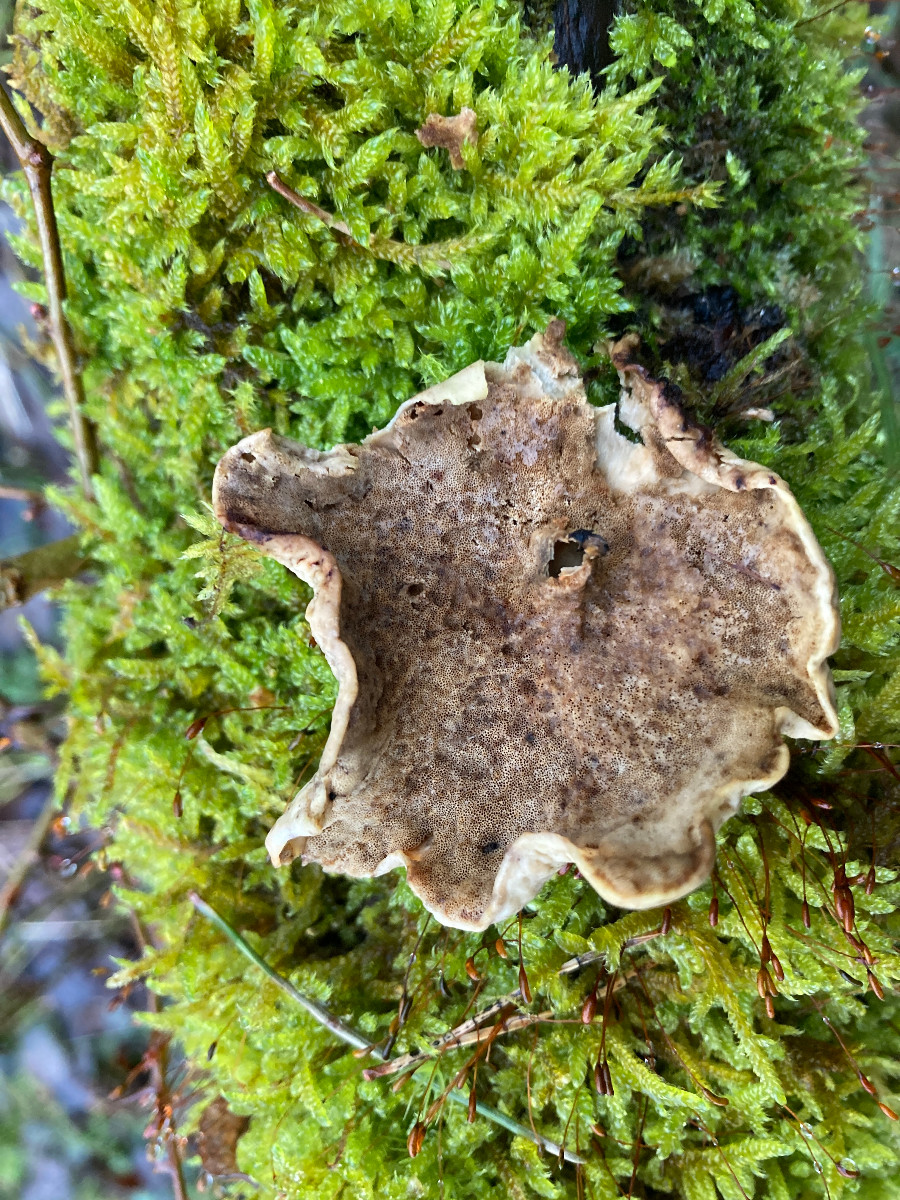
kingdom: Fungi
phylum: Basidiomycota
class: Agaricomycetes
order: Polyporales
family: Polyporaceae
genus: Cerioporus
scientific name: Cerioporus varius
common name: foranderlig stilkporesvamp
